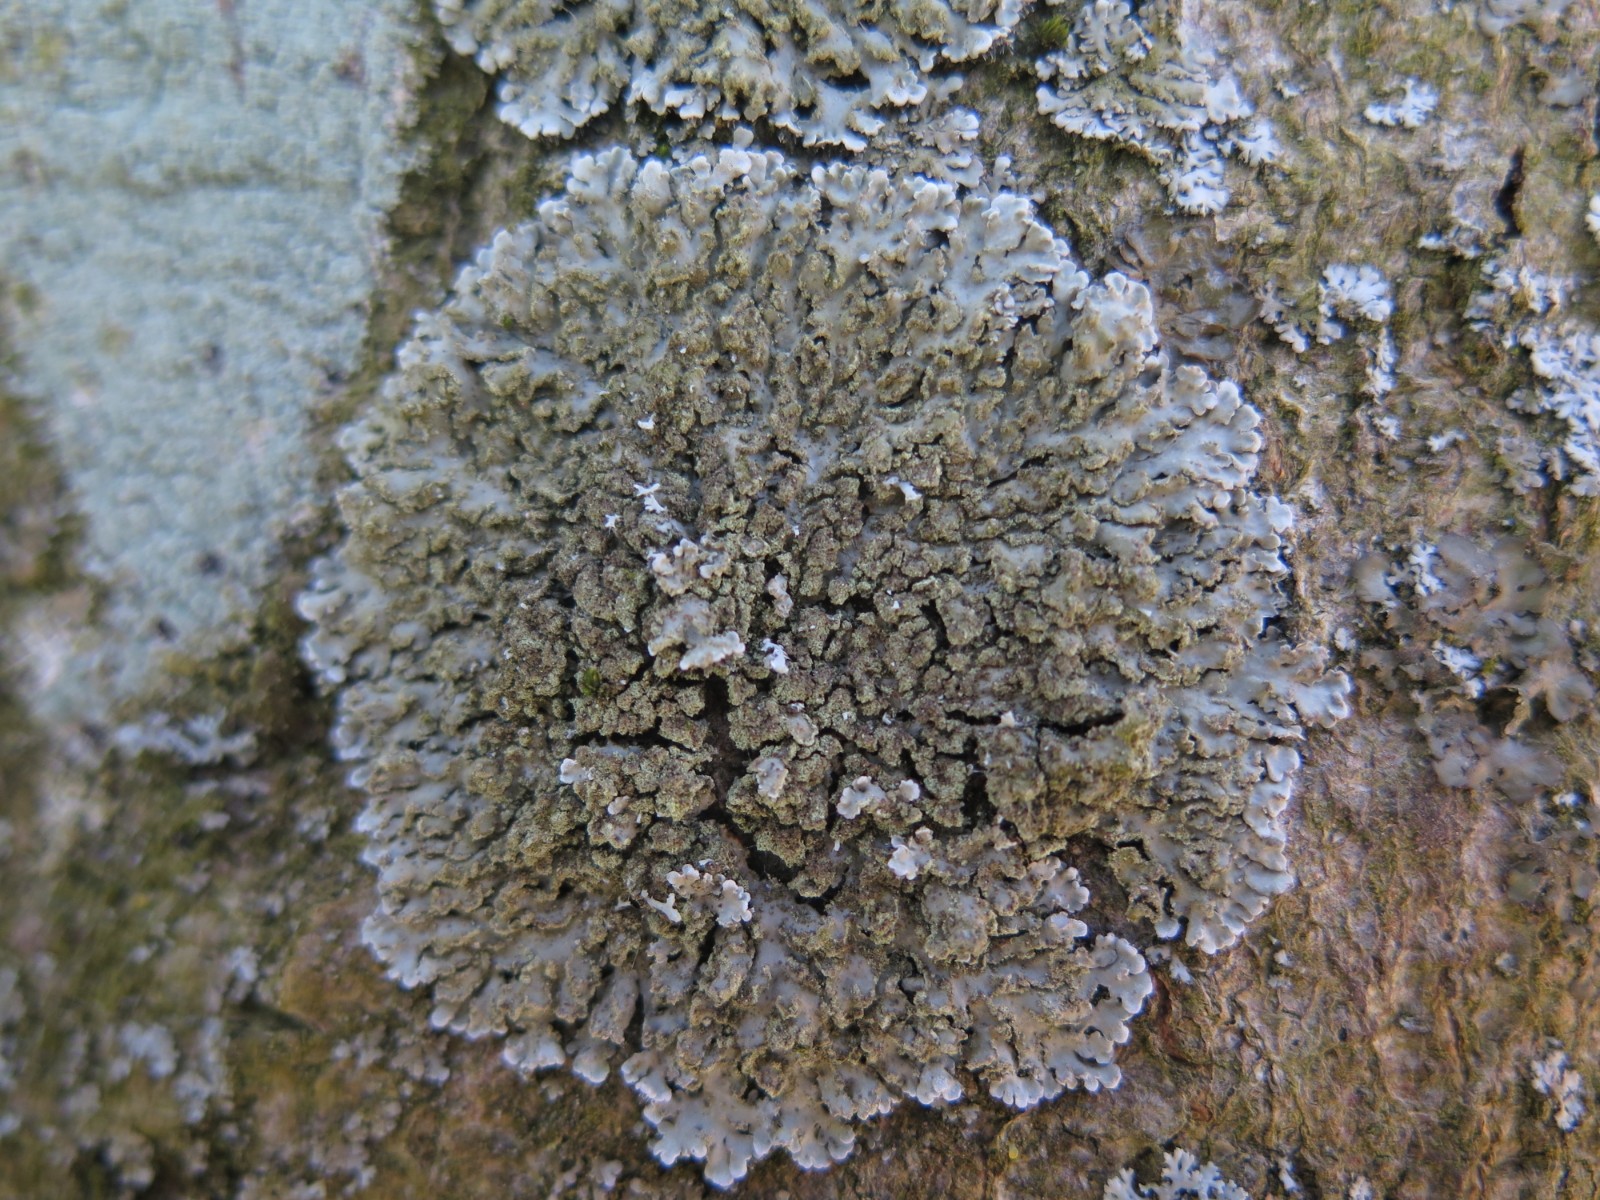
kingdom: Fungi
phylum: Ascomycota
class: Lecanoromycetes
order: Caliciales
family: Physciaceae
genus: Physconia
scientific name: Physconia enteroxantha
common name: grynet dugrosetlav
